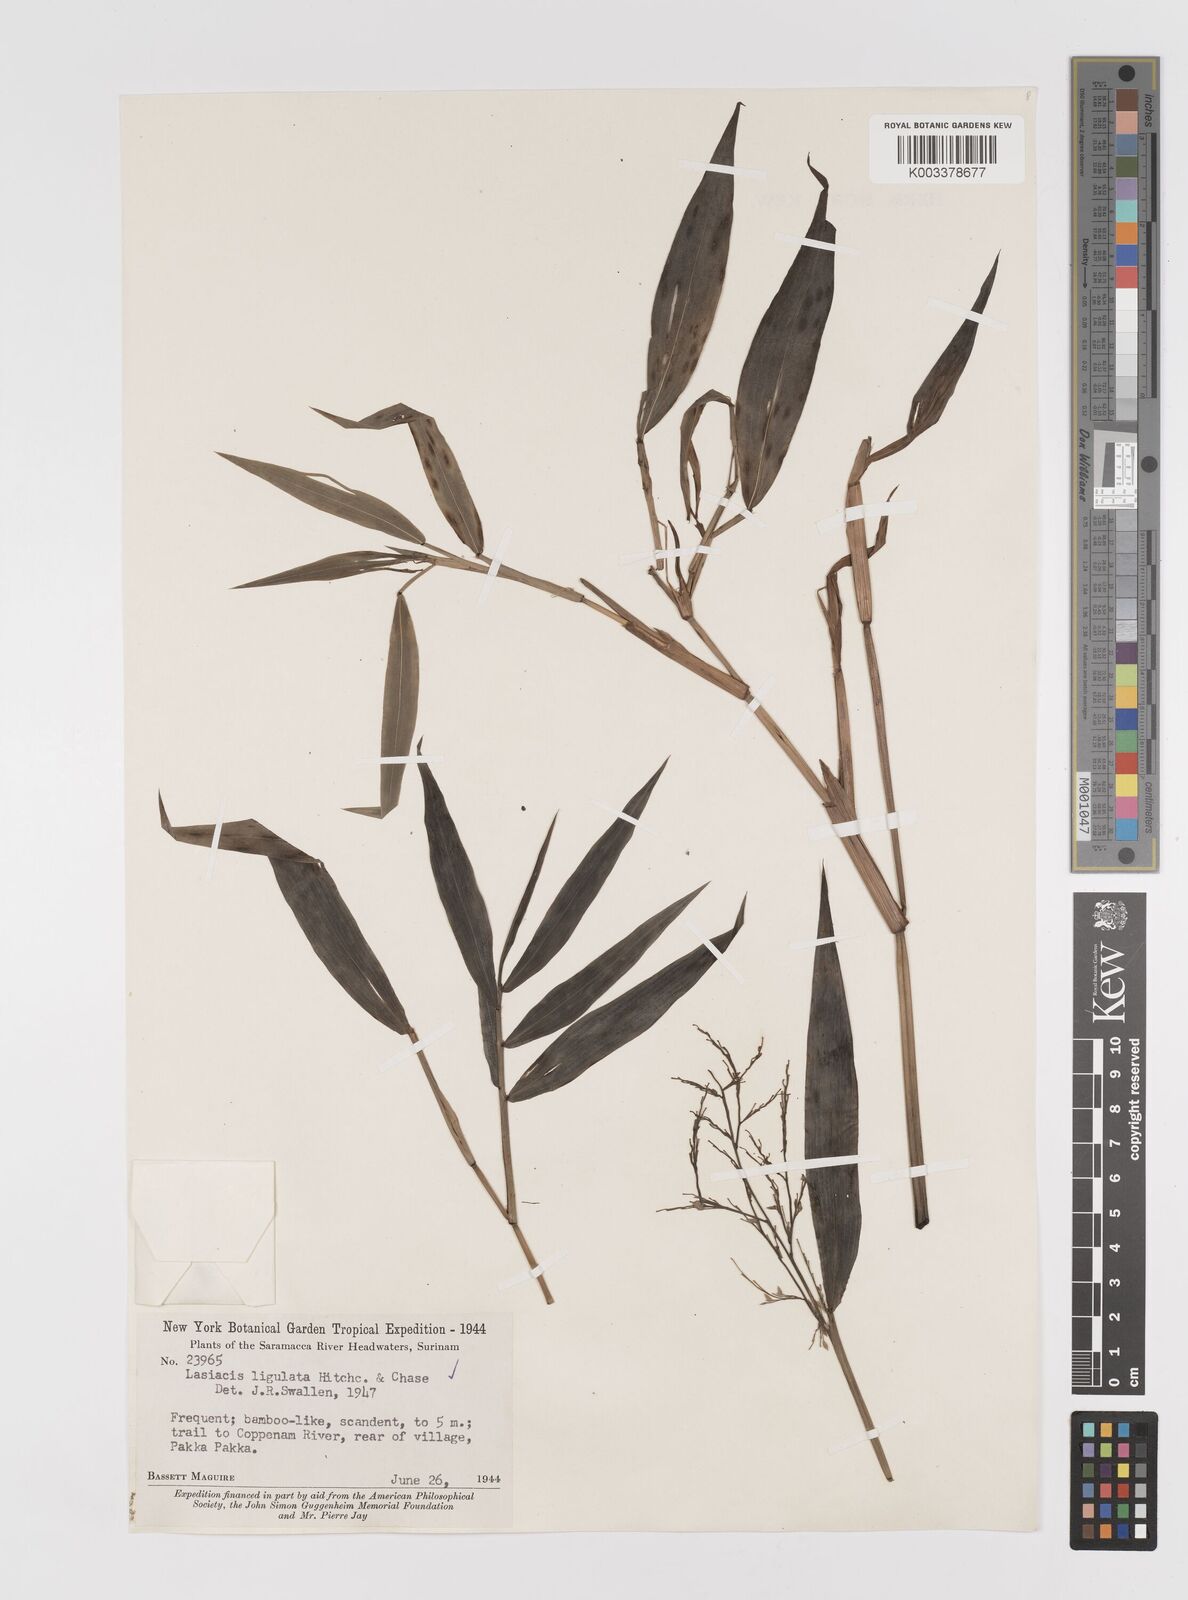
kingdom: Plantae
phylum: Tracheophyta
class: Liliopsida
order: Poales
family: Poaceae
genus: Lasiacis
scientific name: Lasiacis ligulata
